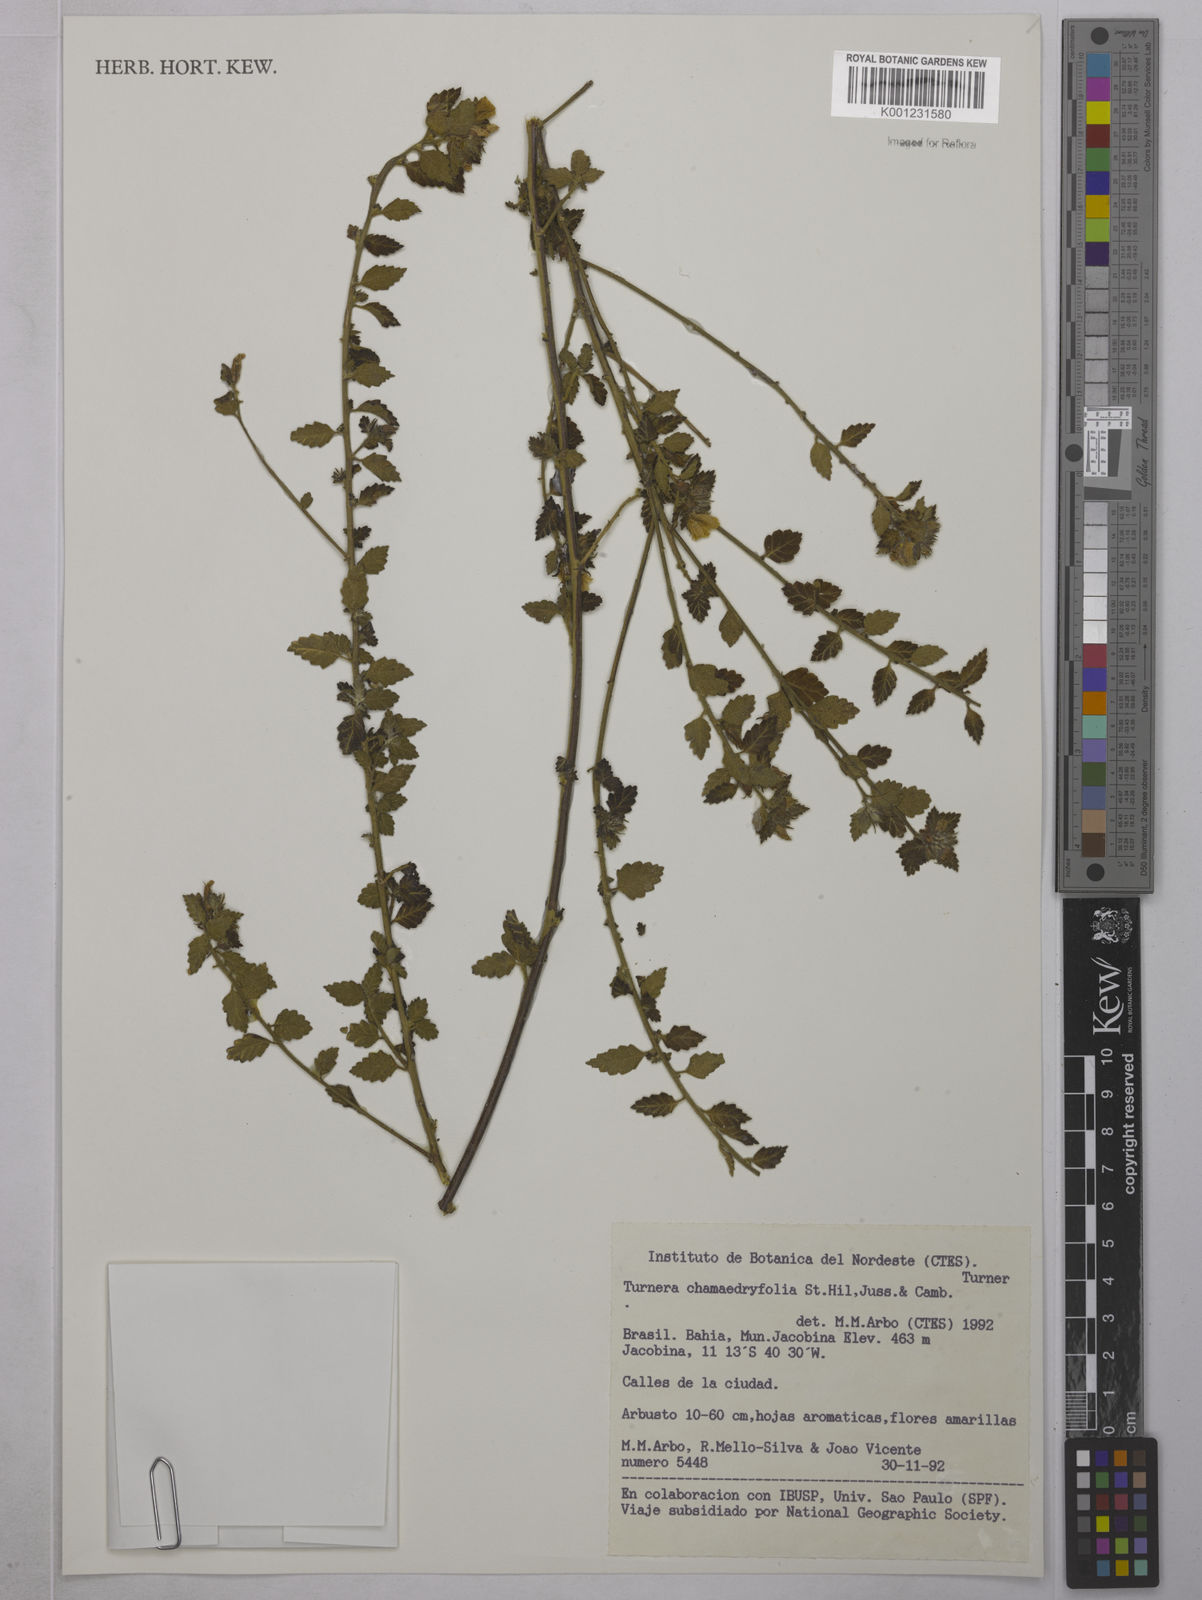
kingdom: Plantae
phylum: Tracheophyta
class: Magnoliopsida
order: Malpighiales
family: Turneraceae
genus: Turnera
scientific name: Turnera chamaedrifolia
